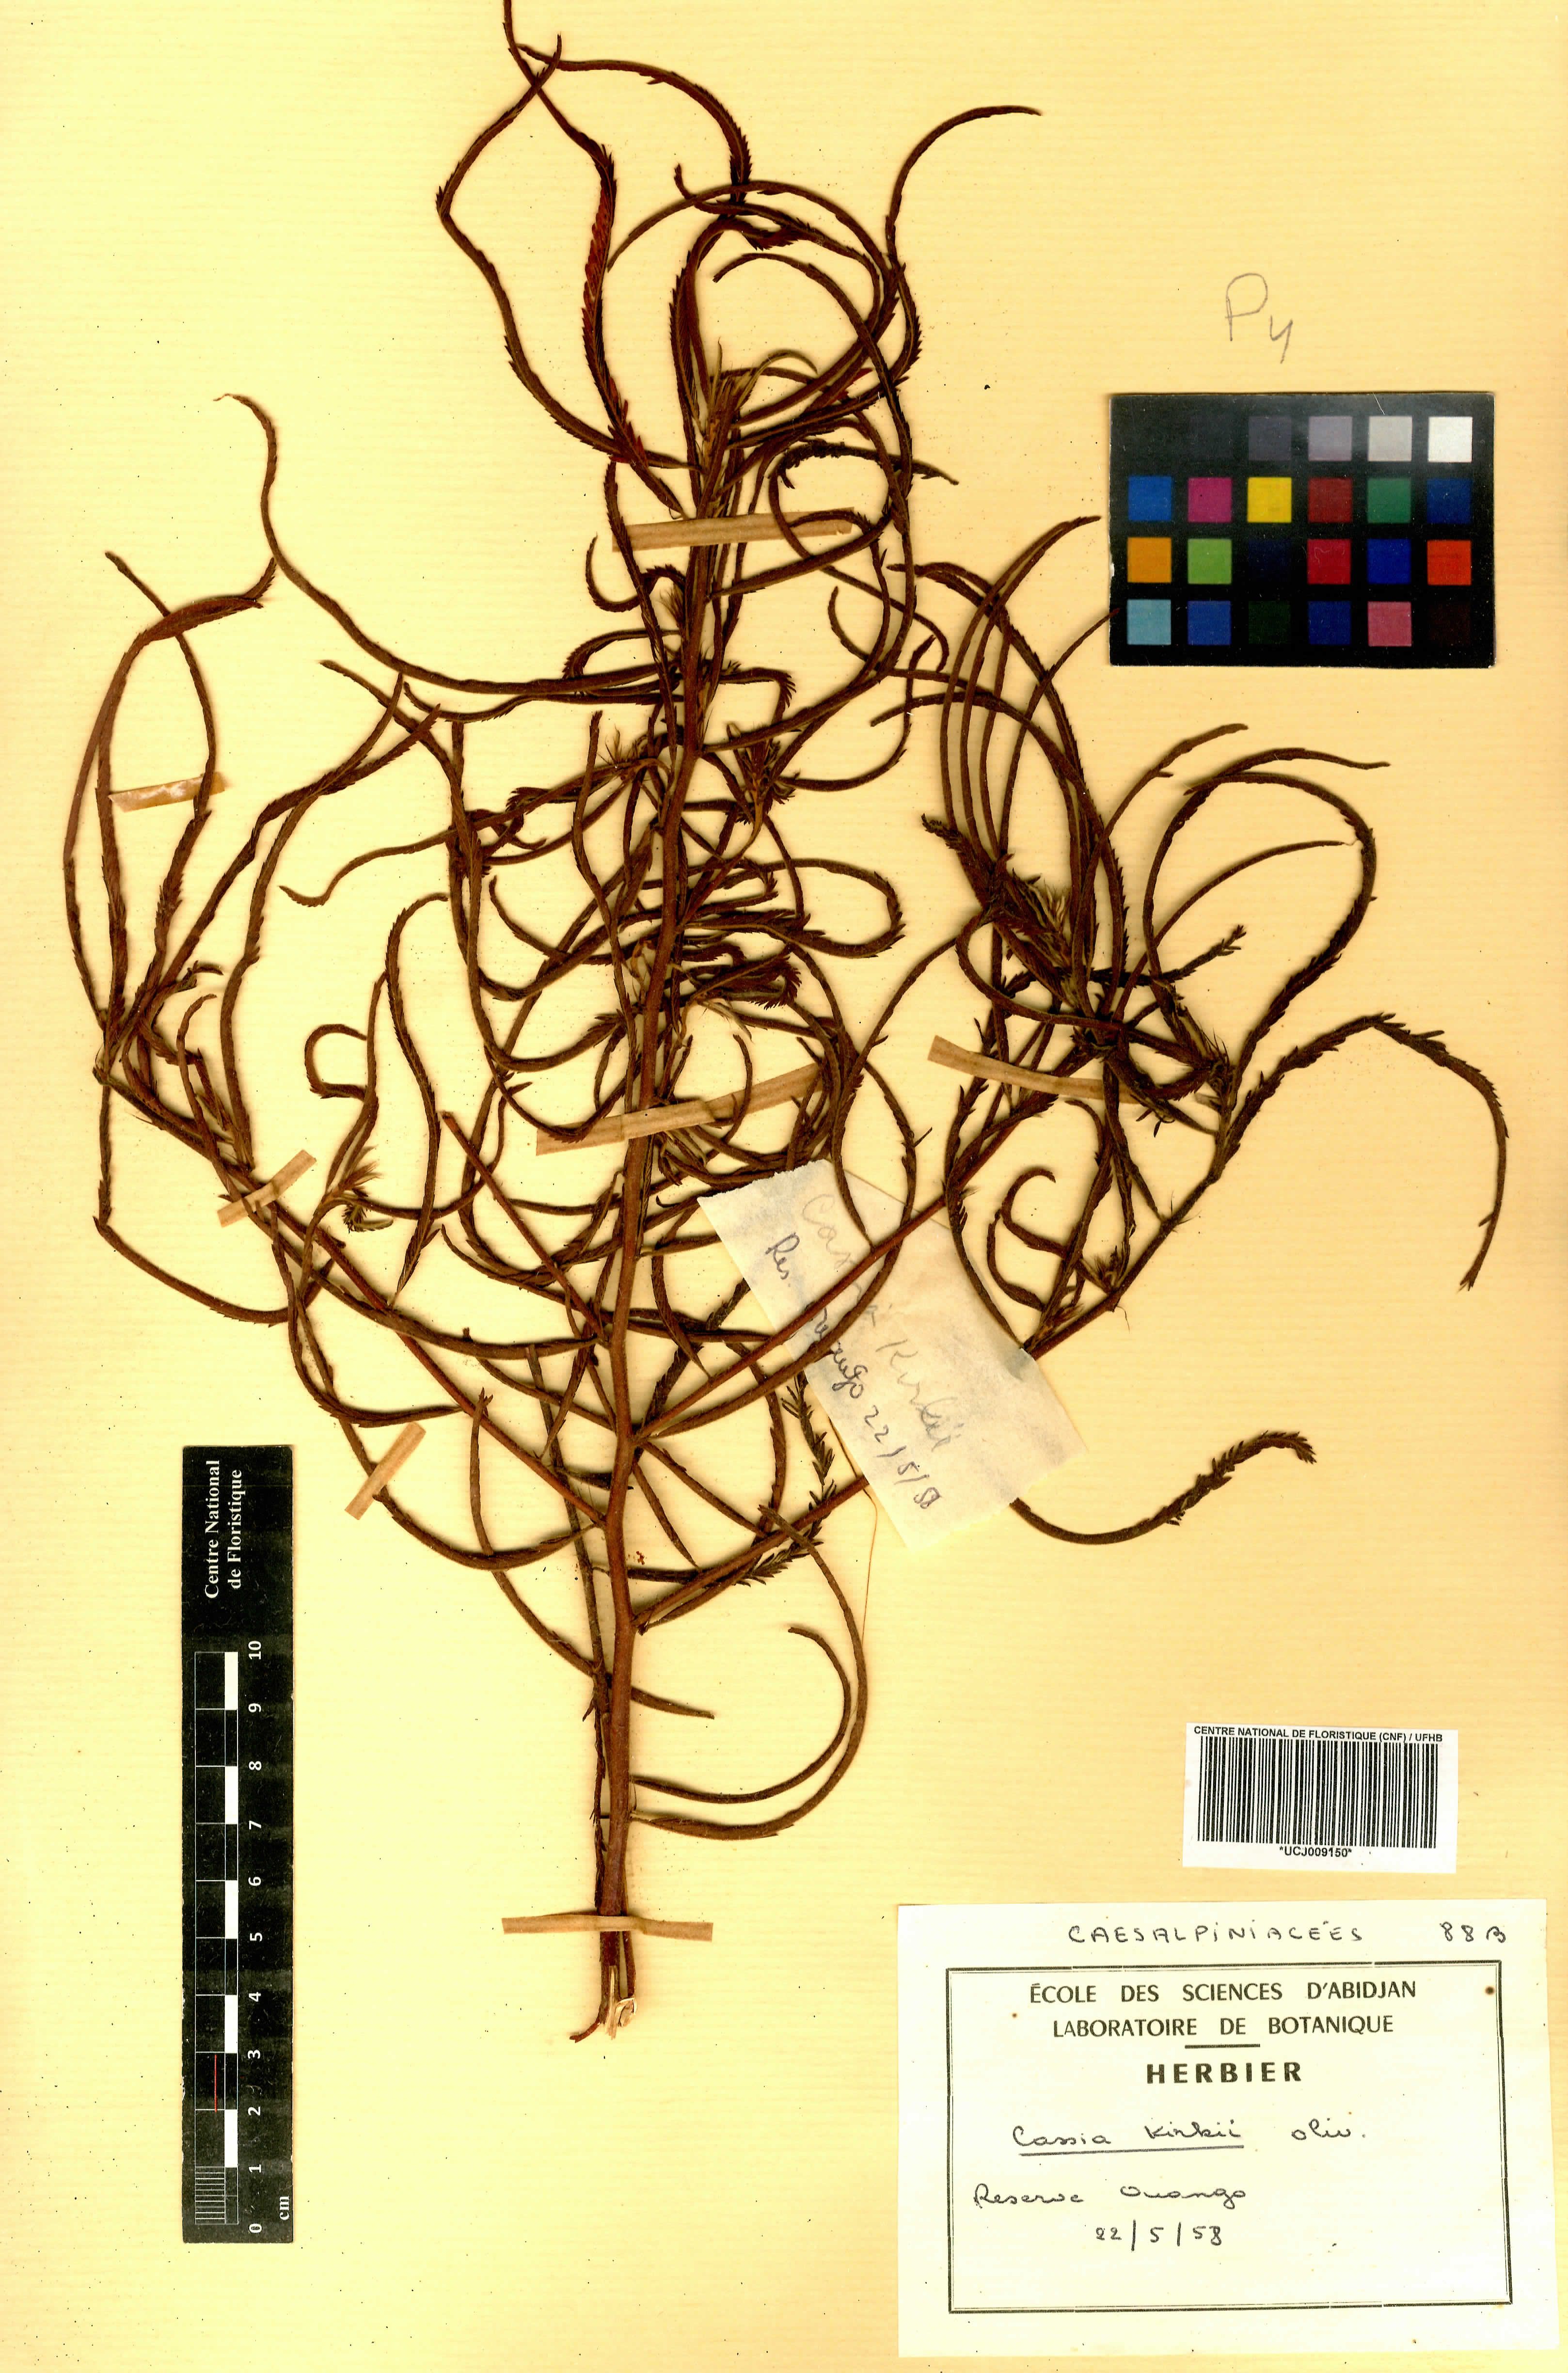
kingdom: Plantae
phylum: Tracheophyta
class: Magnoliopsida
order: Fabales
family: Fabaceae
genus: Chamaecrista
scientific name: Chamaecrista kirkii
